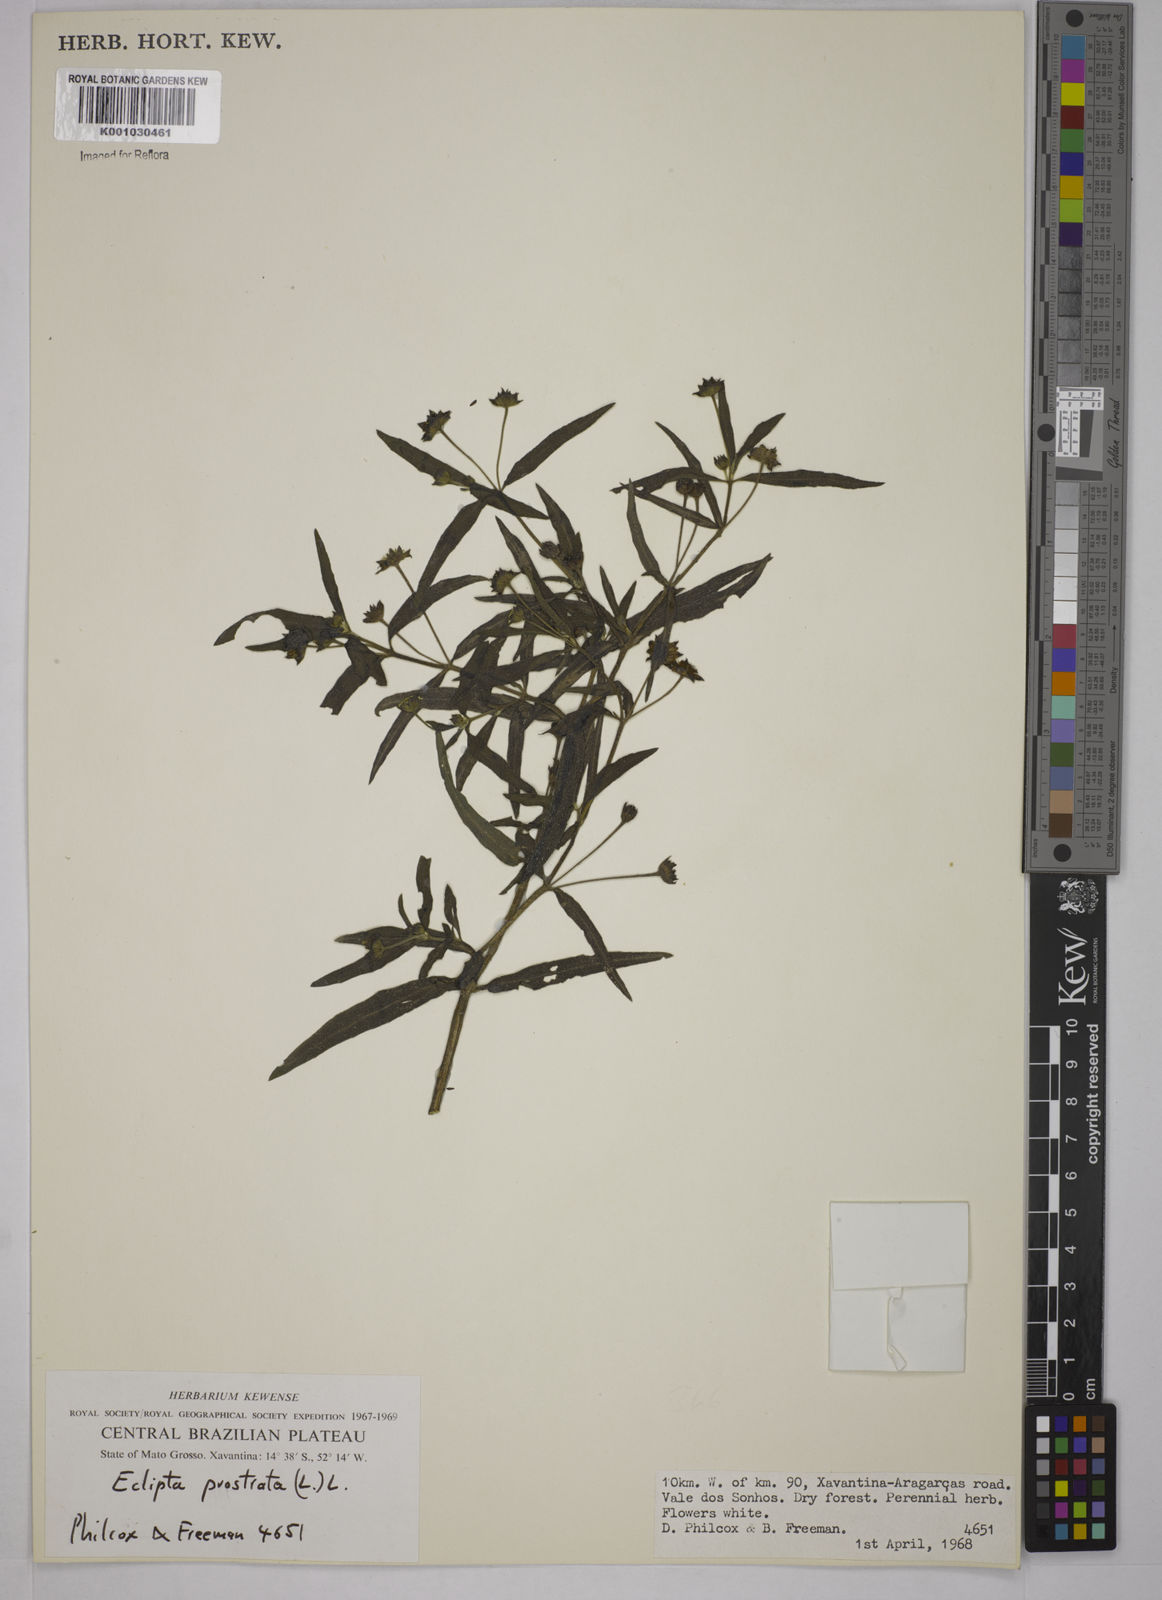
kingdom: Plantae
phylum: Tracheophyta
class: Magnoliopsida
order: Asterales
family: Asteraceae
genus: Eclipta
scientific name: Eclipta prostrata
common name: False daisy
